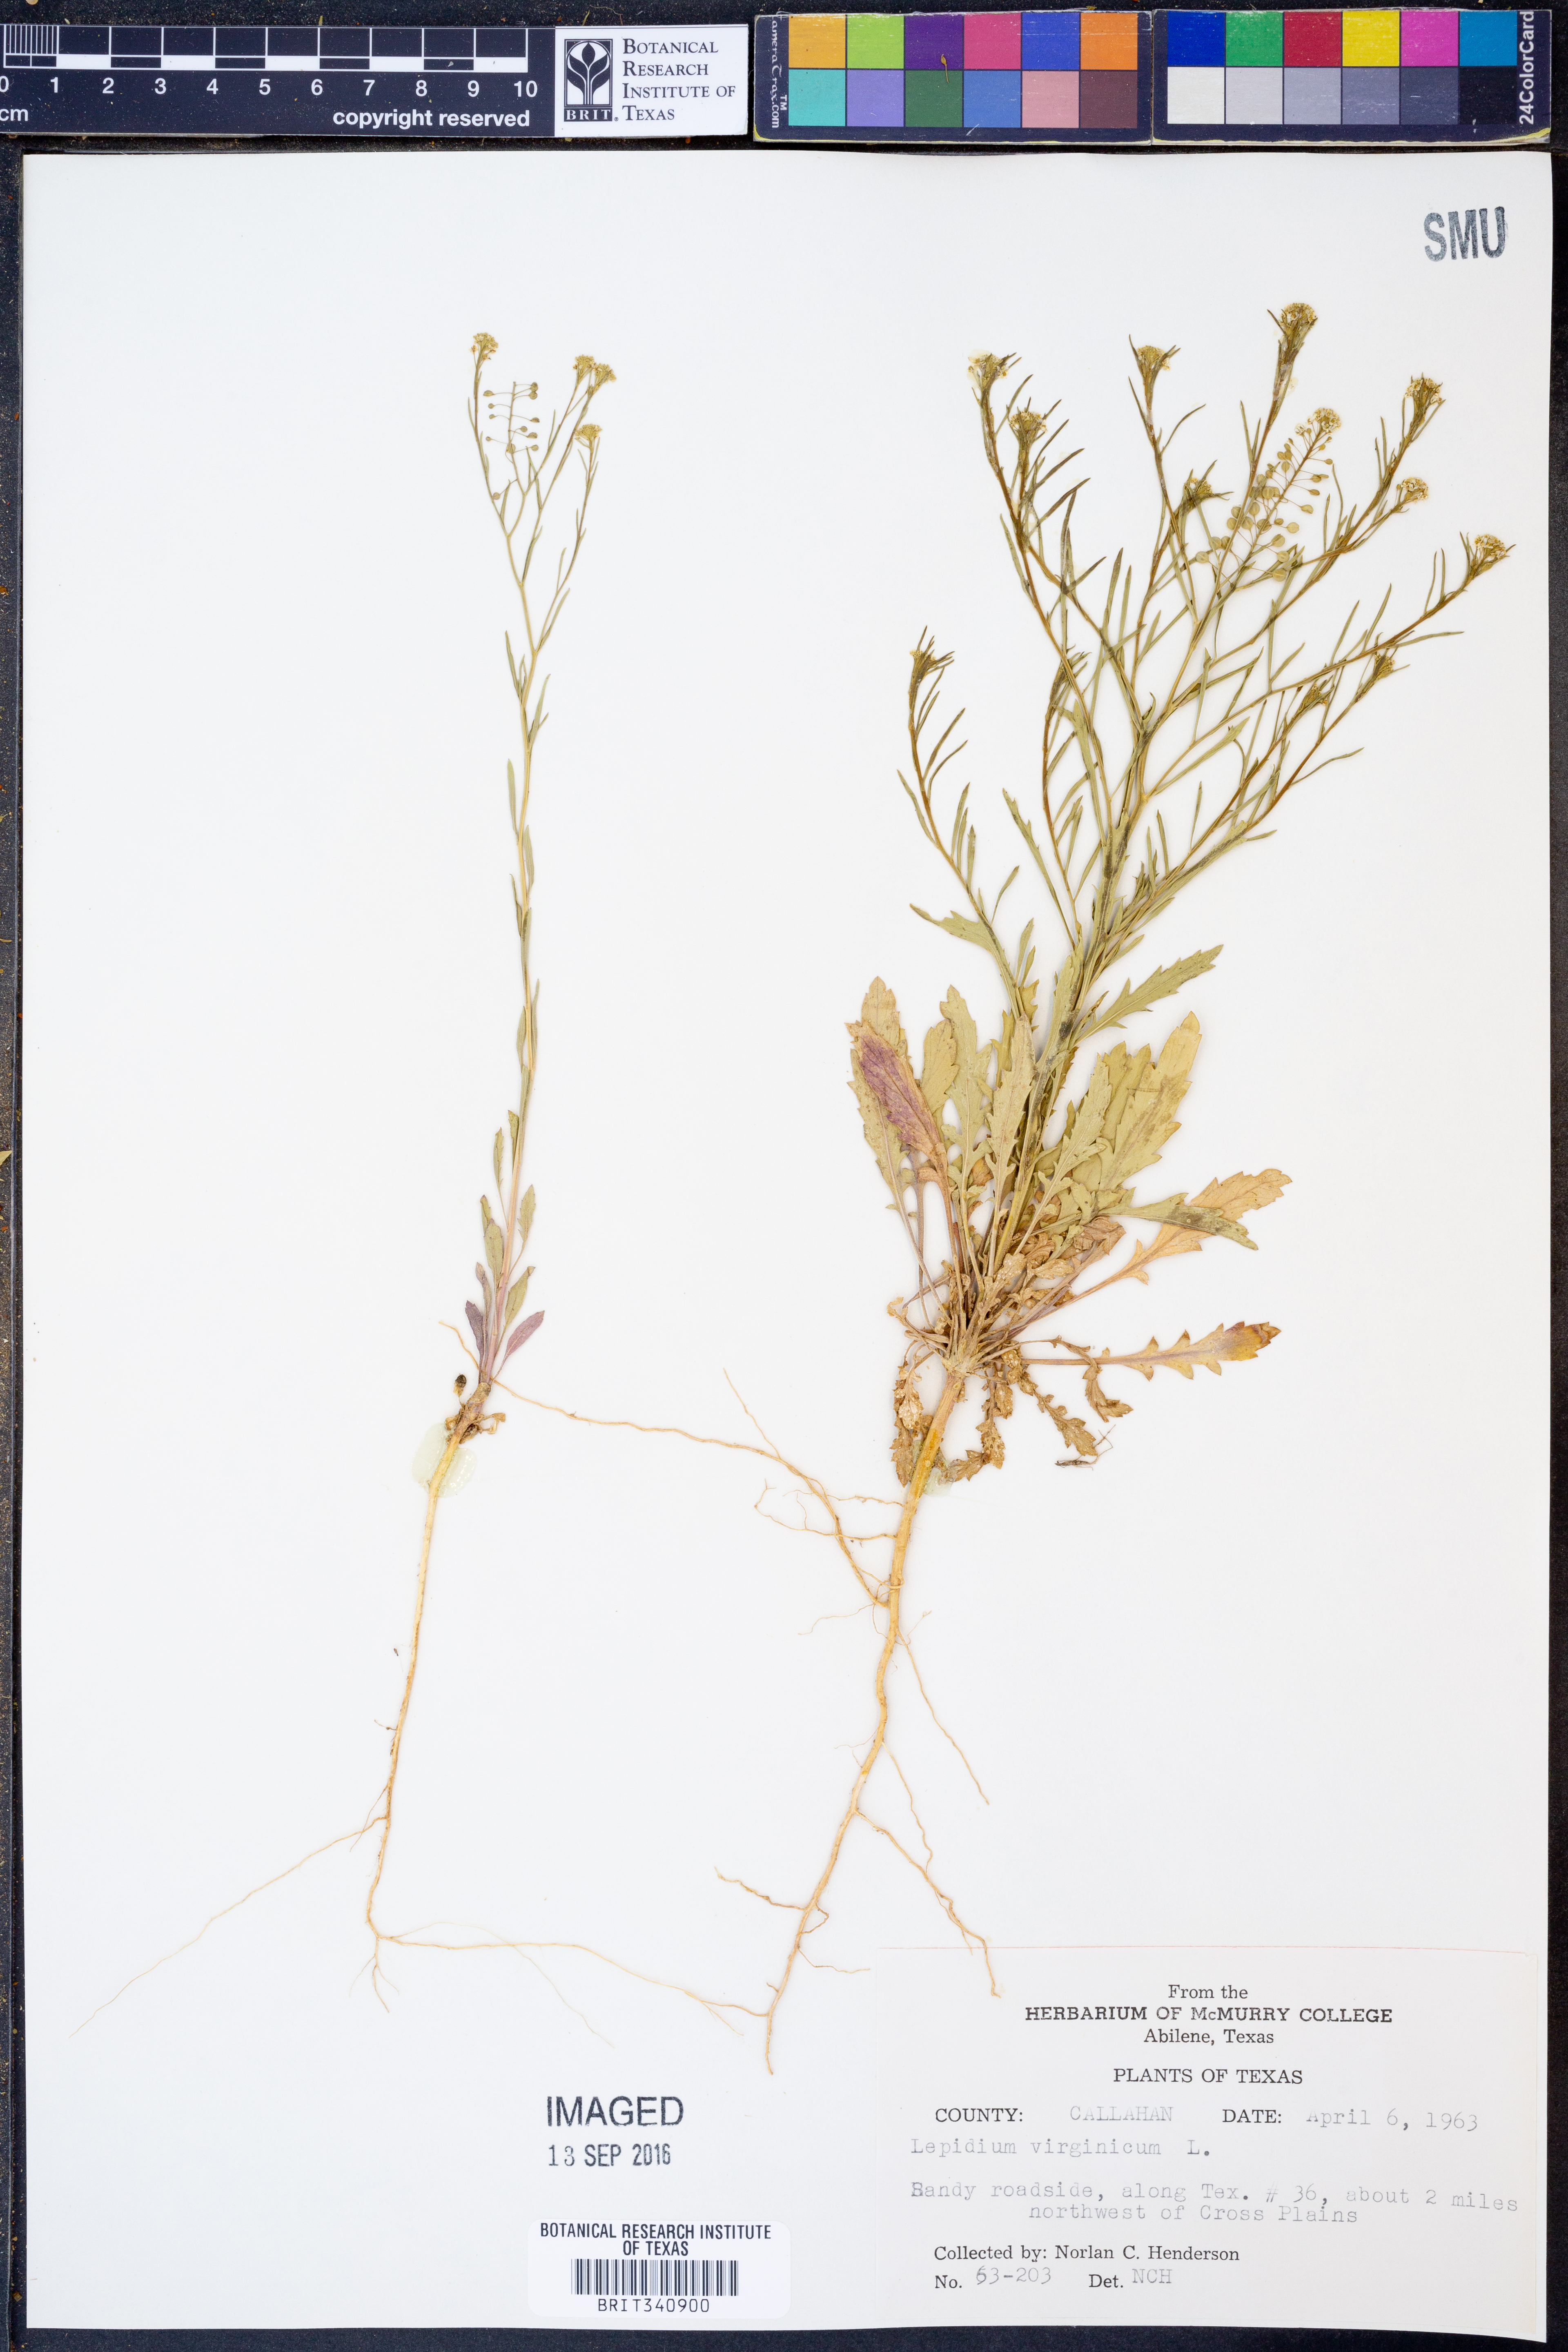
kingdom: Plantae
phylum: Tracheophyta
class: Magnoliopsida
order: Brassicales
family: Brassicaceae
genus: Lepidium
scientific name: Lepidium virginicum
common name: Least pepperwort
